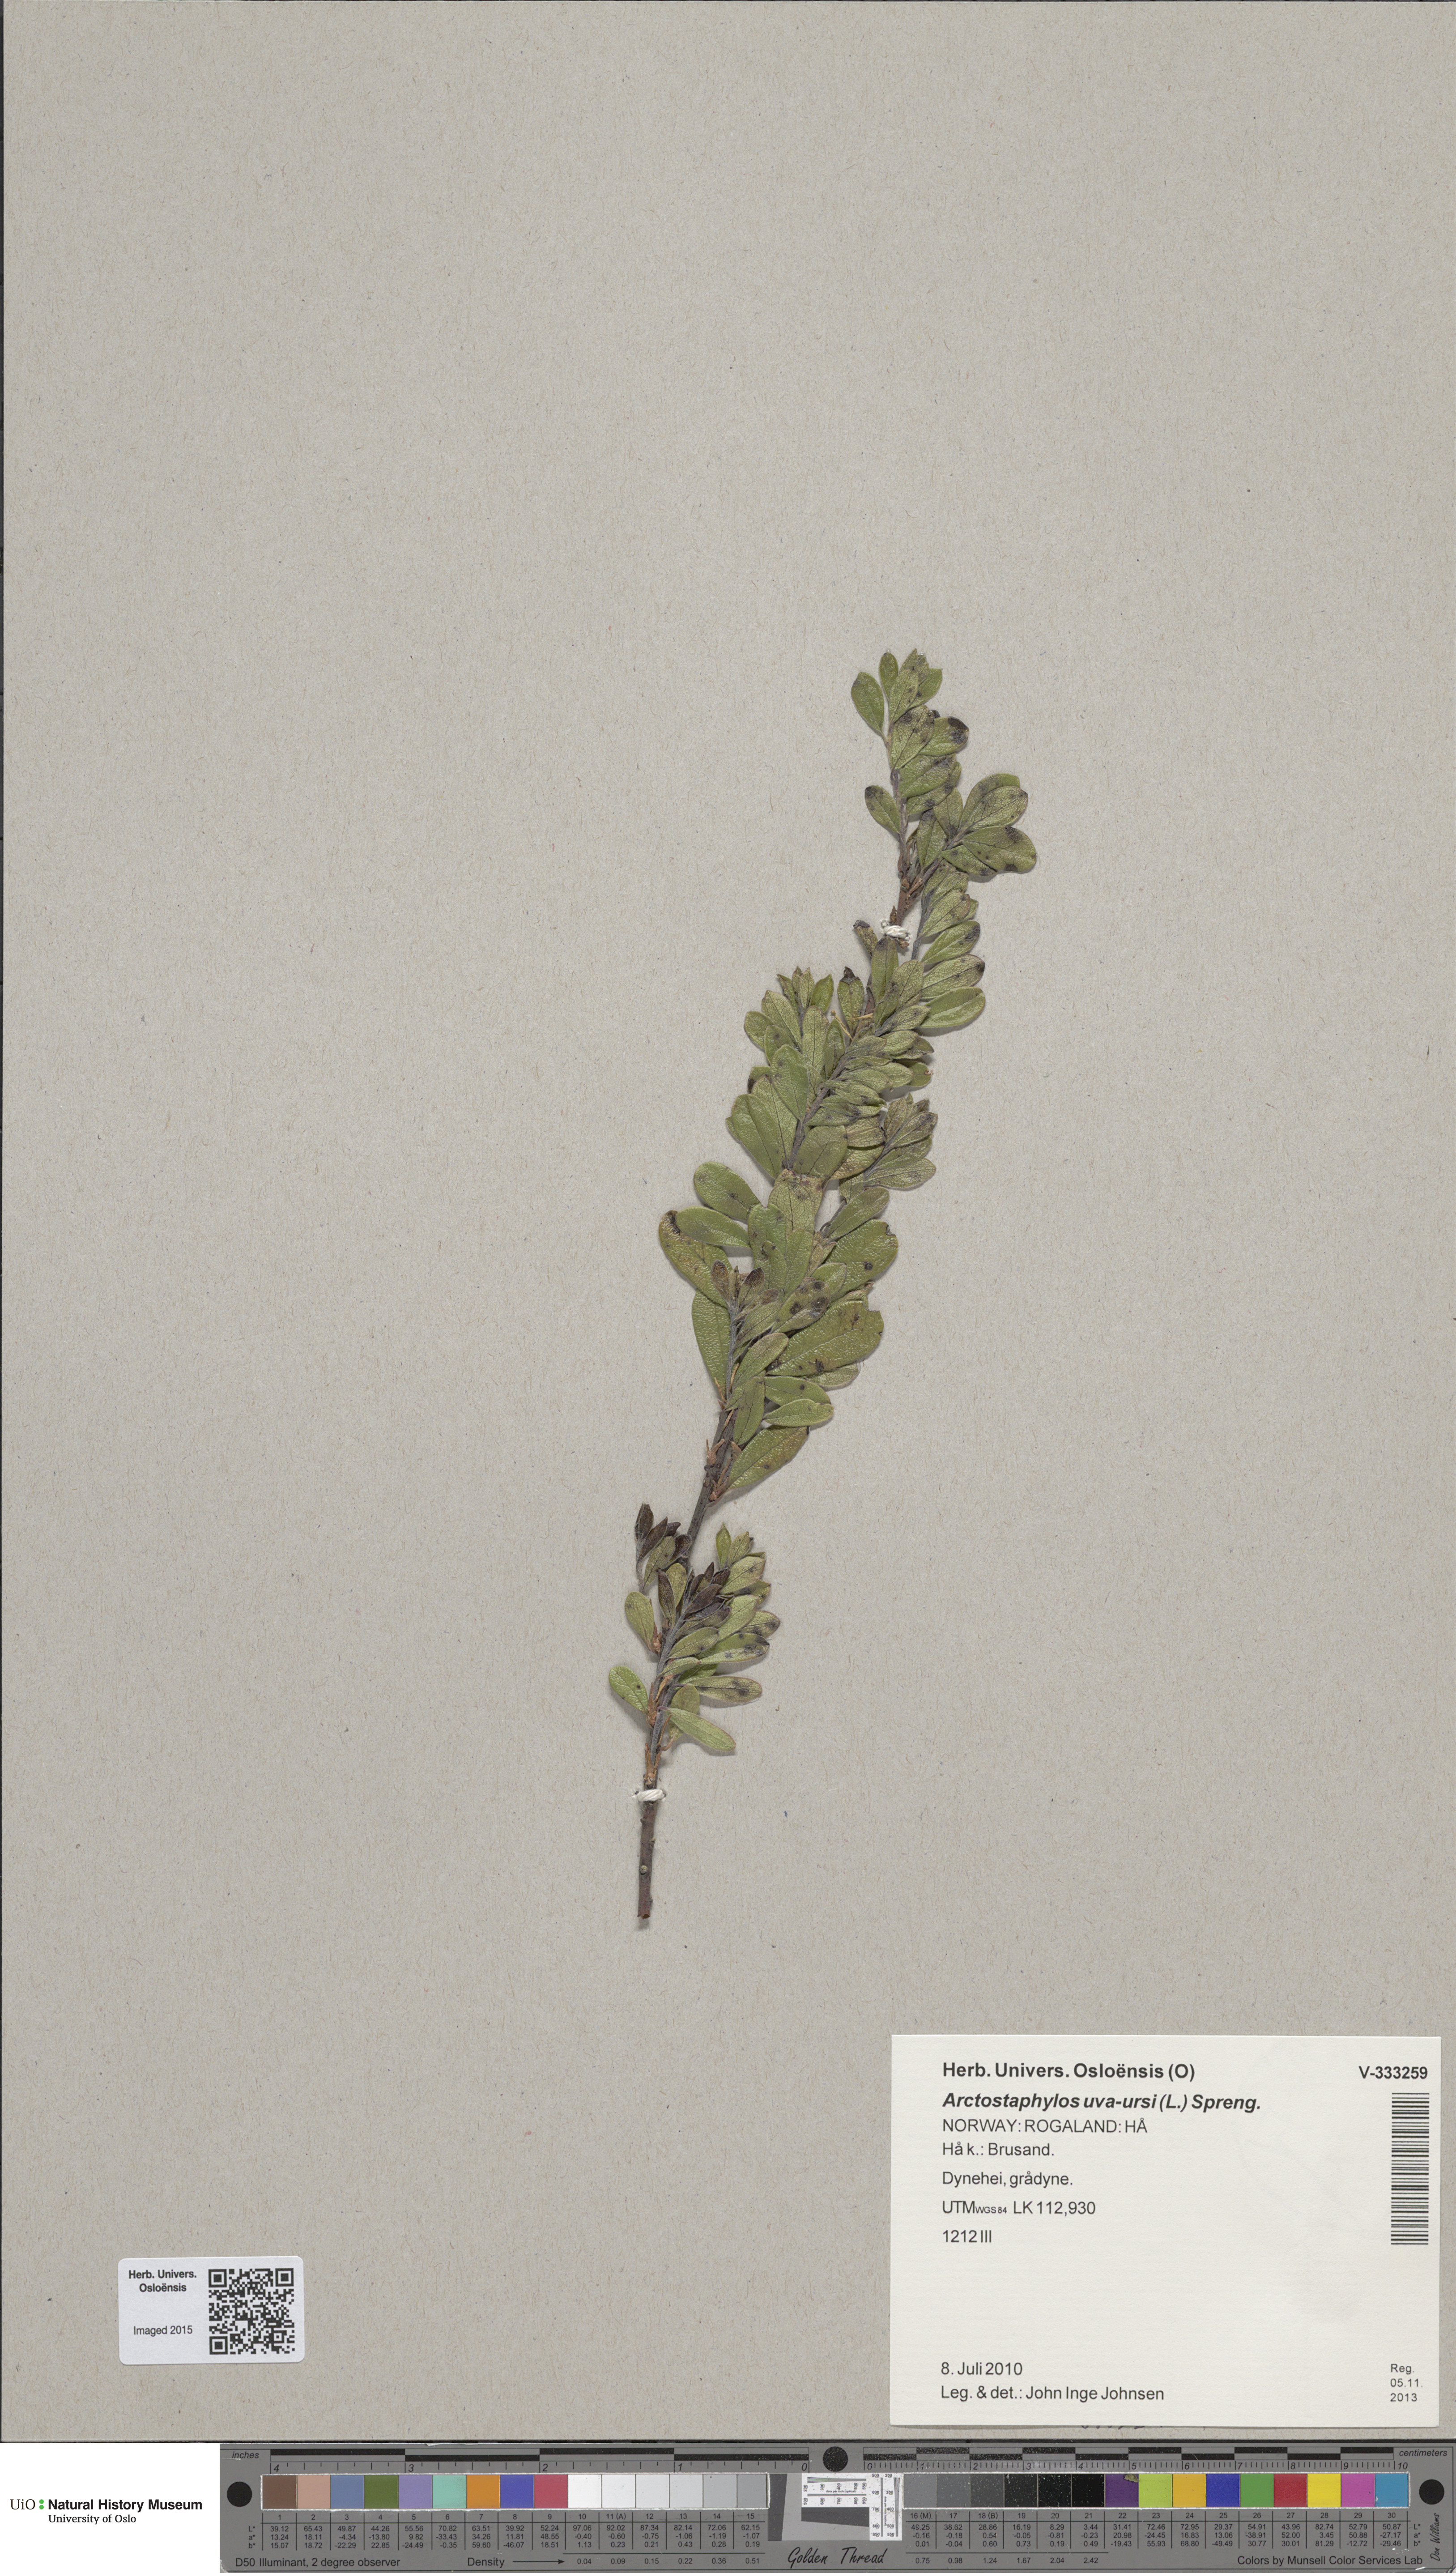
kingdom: Plantae
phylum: Tracheophyta
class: Magnoliopsida
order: Ericales
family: Ericaceae
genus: Arctostaphylos
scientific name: Arctostaphylos uva-ursi
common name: Bearberry
